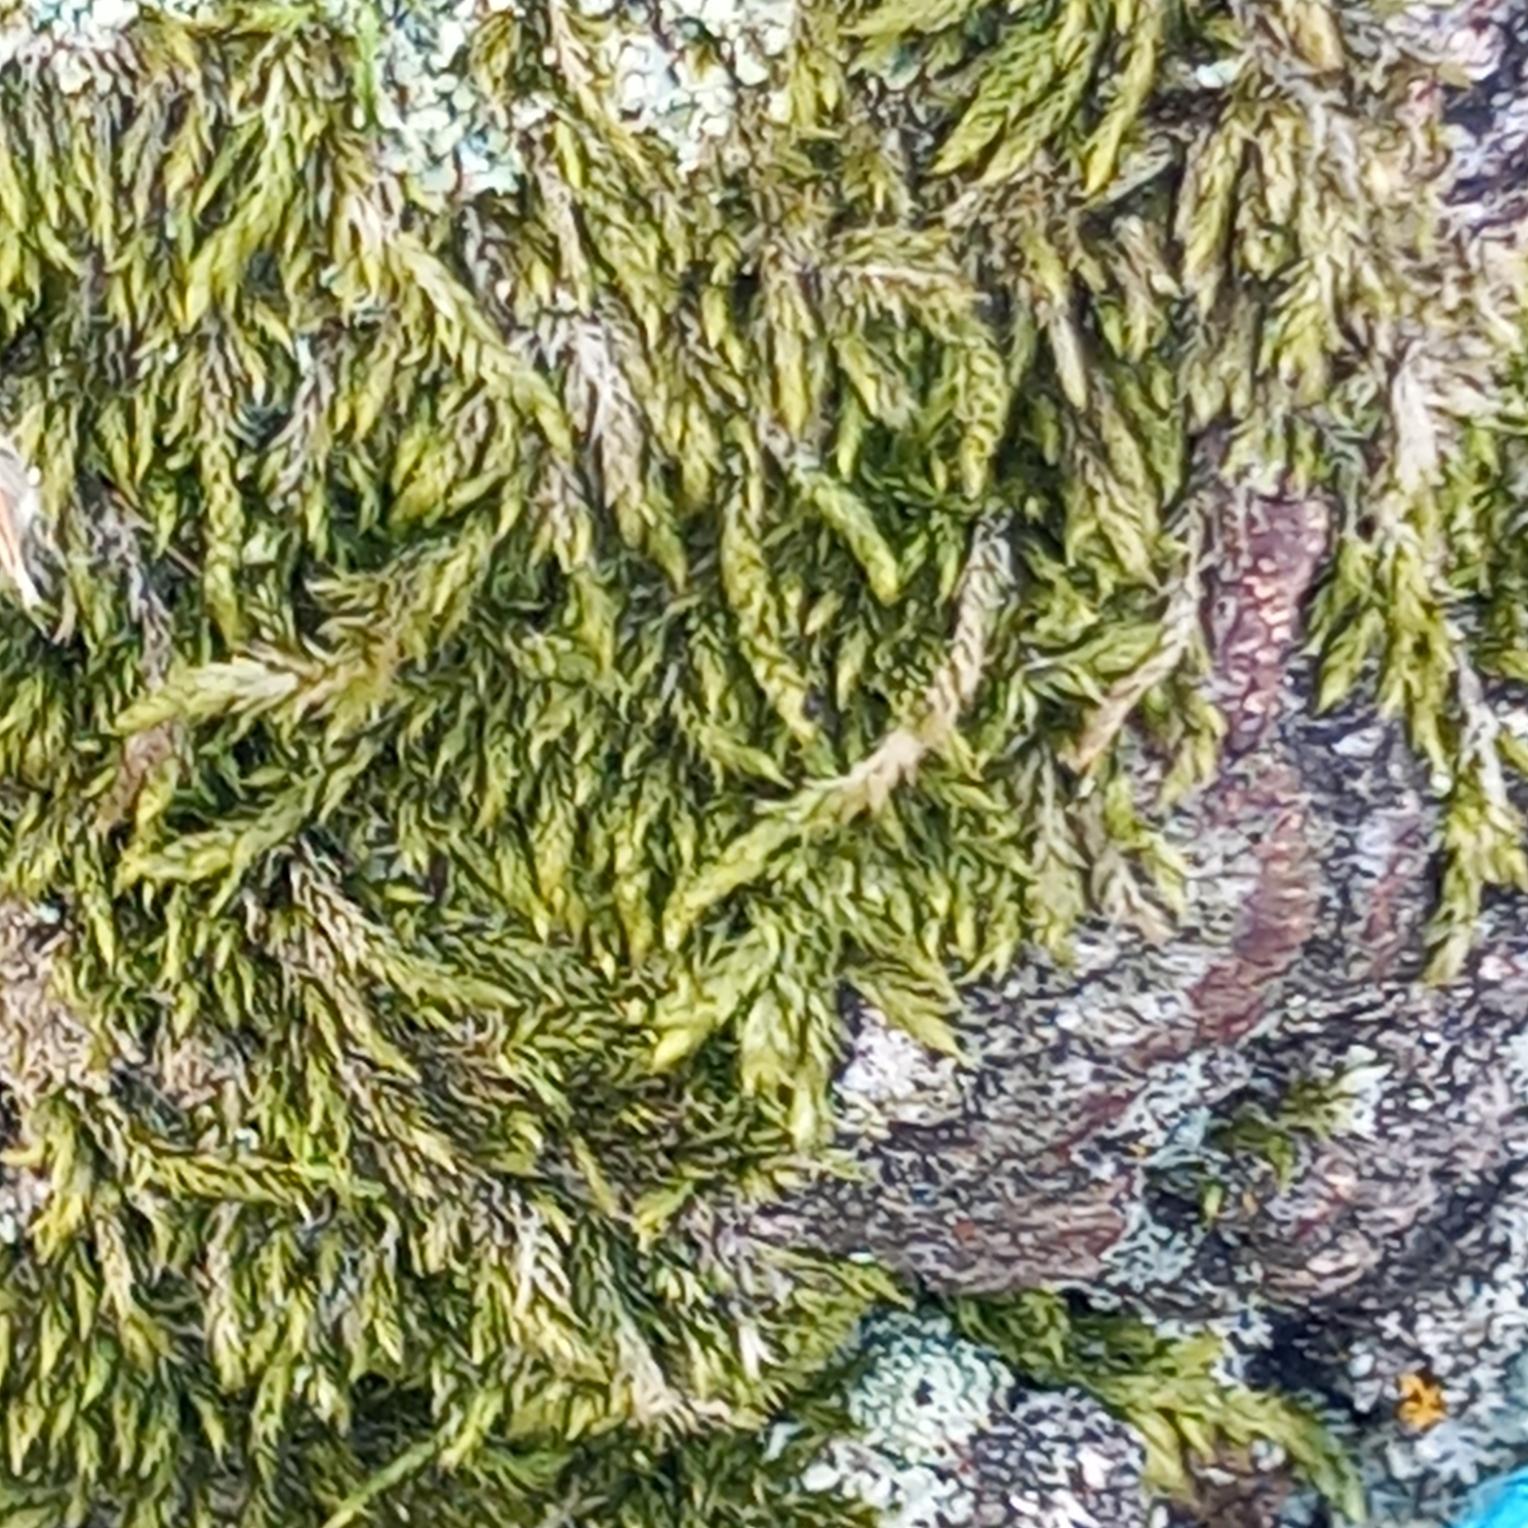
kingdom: Plantae
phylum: Bryophyta
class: Bryopsida
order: Hypnales
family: Hypnaceae
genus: Hypnum
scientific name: Hypnum cupressiforme
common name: Almindelig cypresmos
